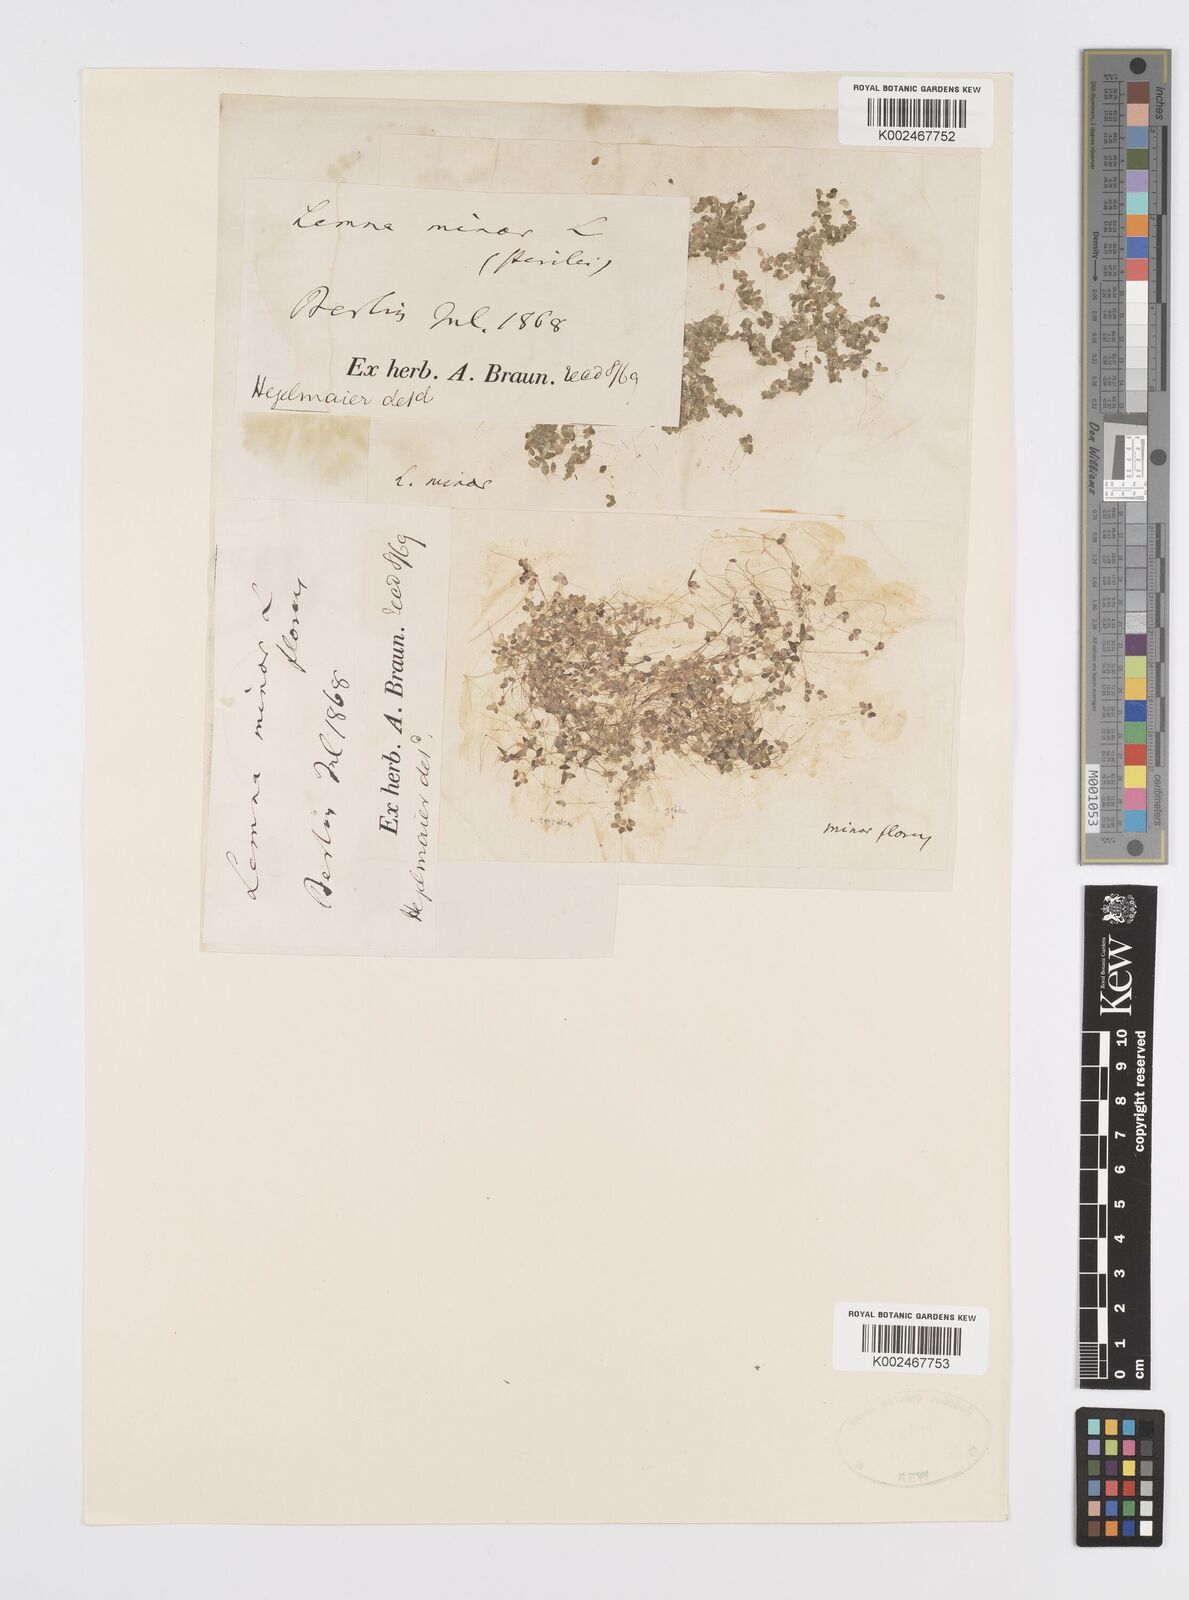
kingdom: Plantae
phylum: Tracheophyta
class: Liliopsida
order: Alismatales
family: Araceae
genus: Lemna
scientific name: Lemna minor
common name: Common duckweed
